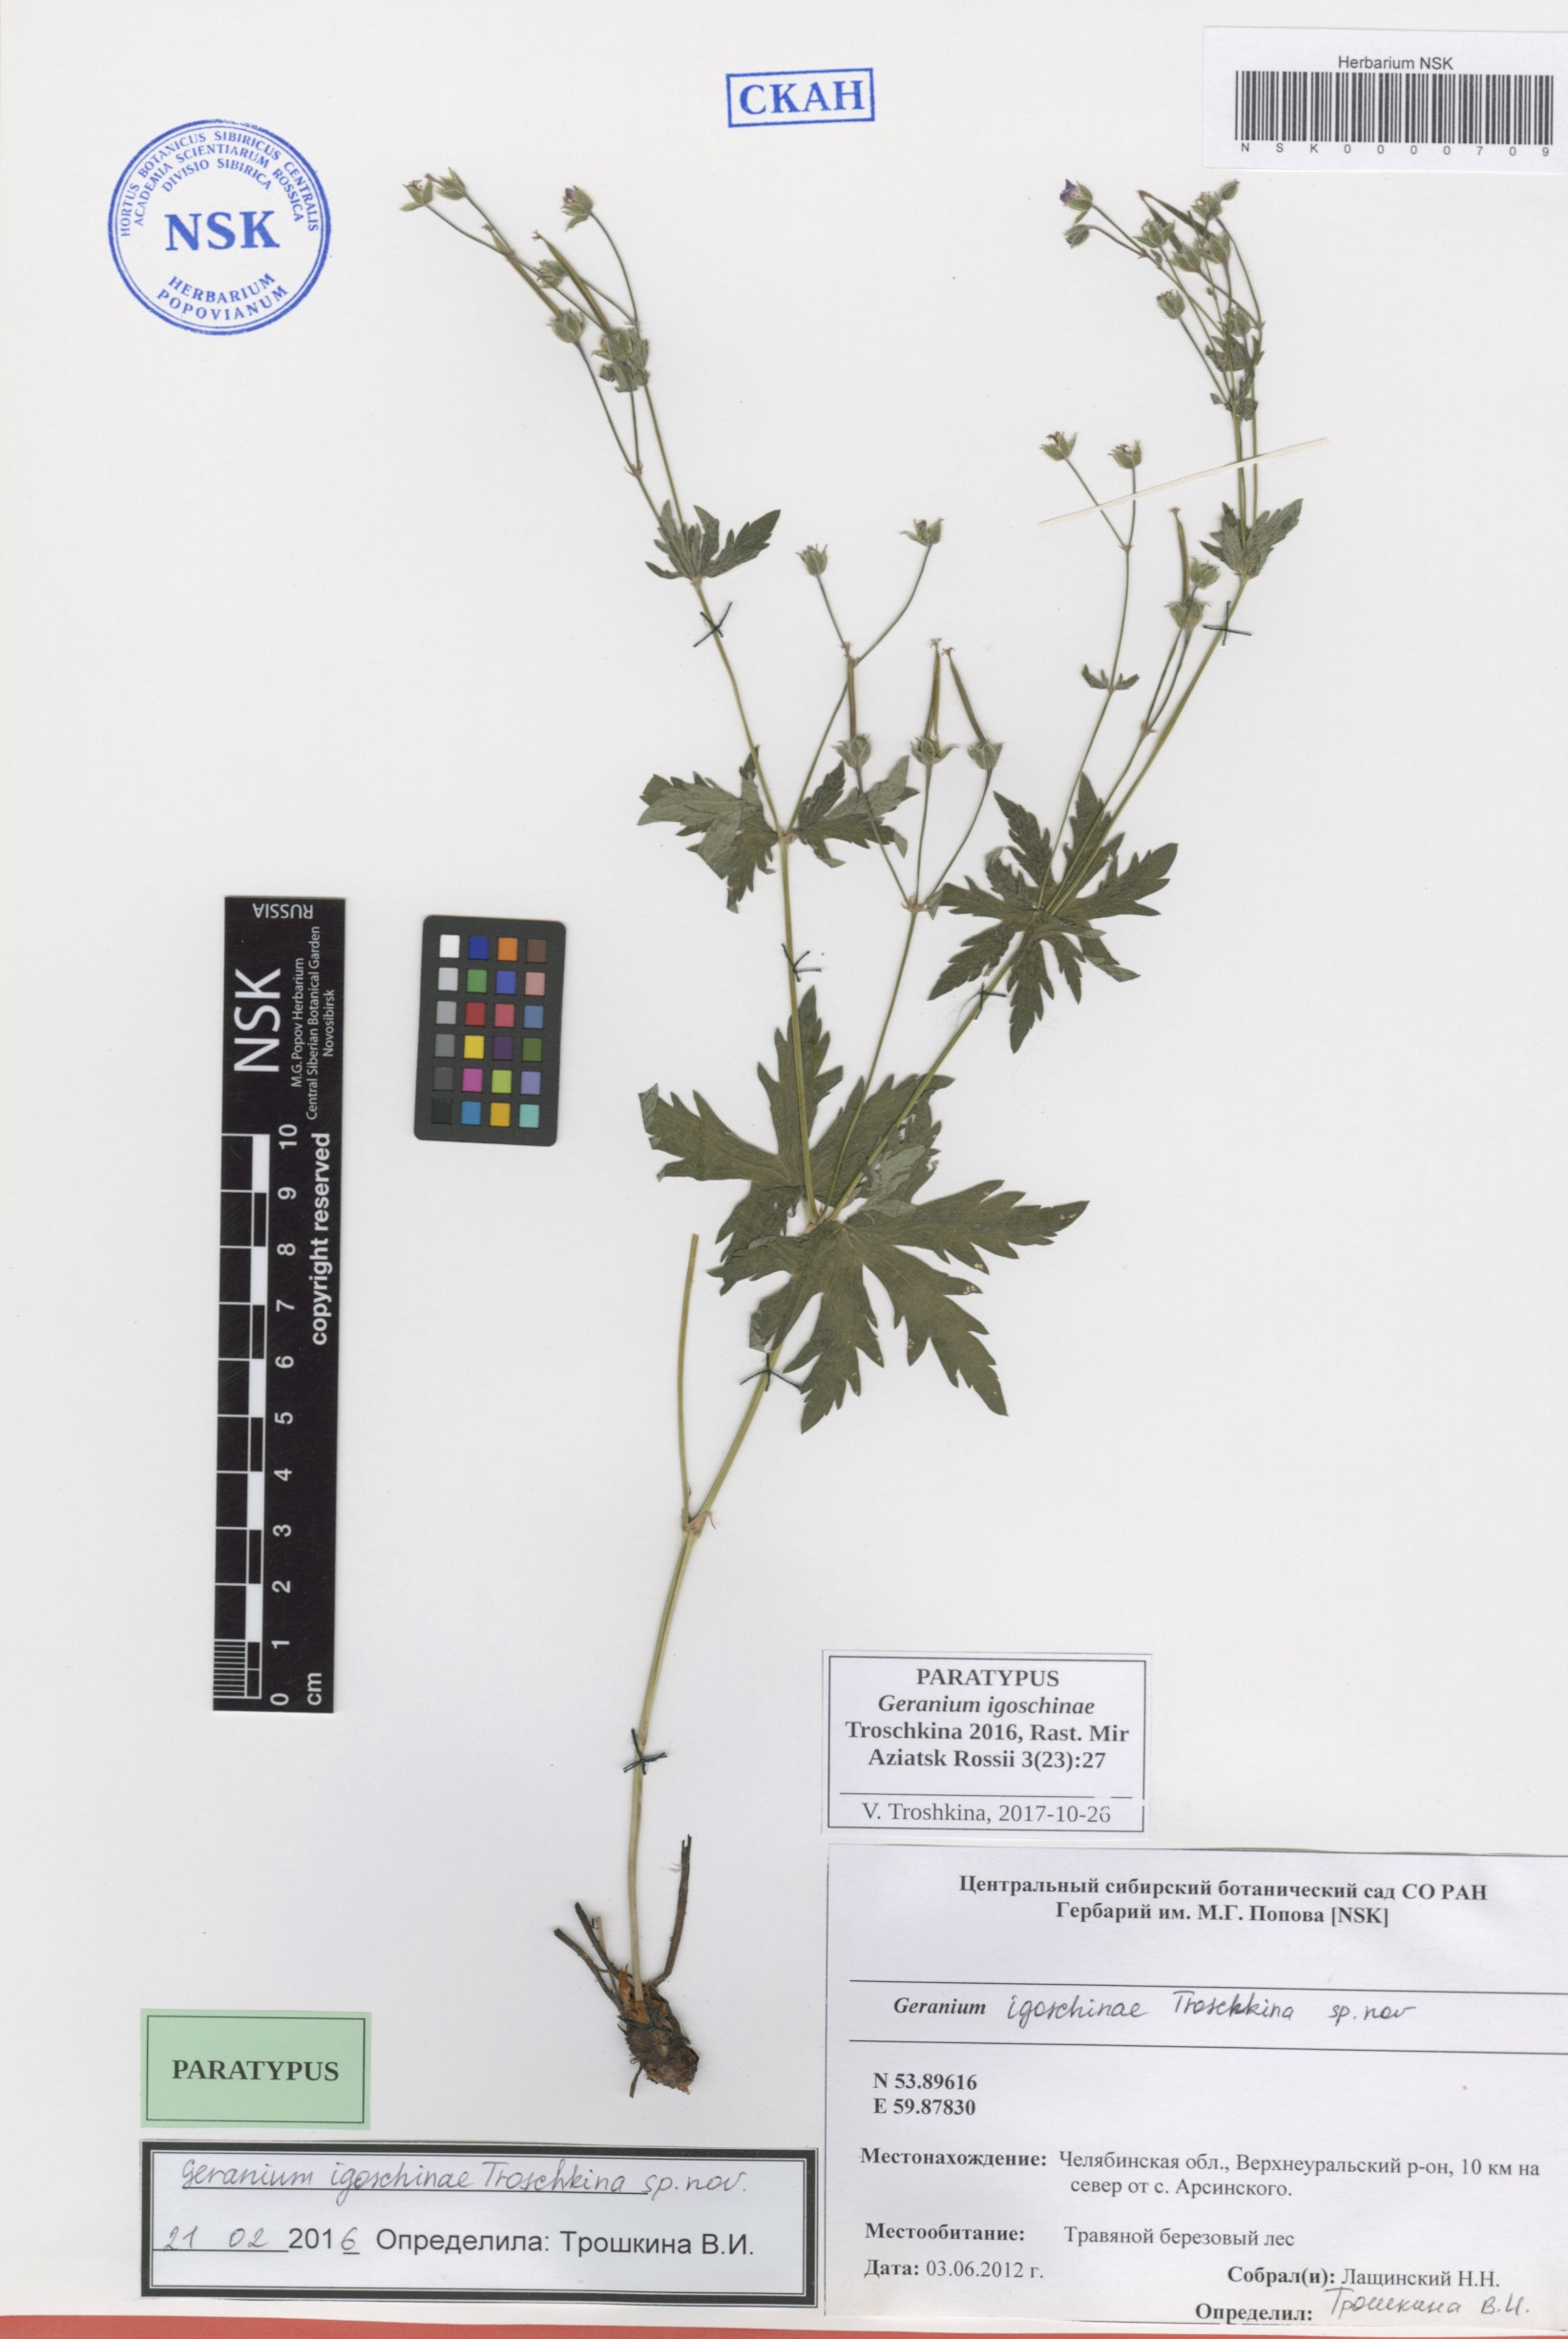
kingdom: Plantae
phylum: Tracheophyta
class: Magnoliopsida
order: Geraniales
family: Geraniaceae
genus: Geranium
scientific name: Geranium igoschinae
